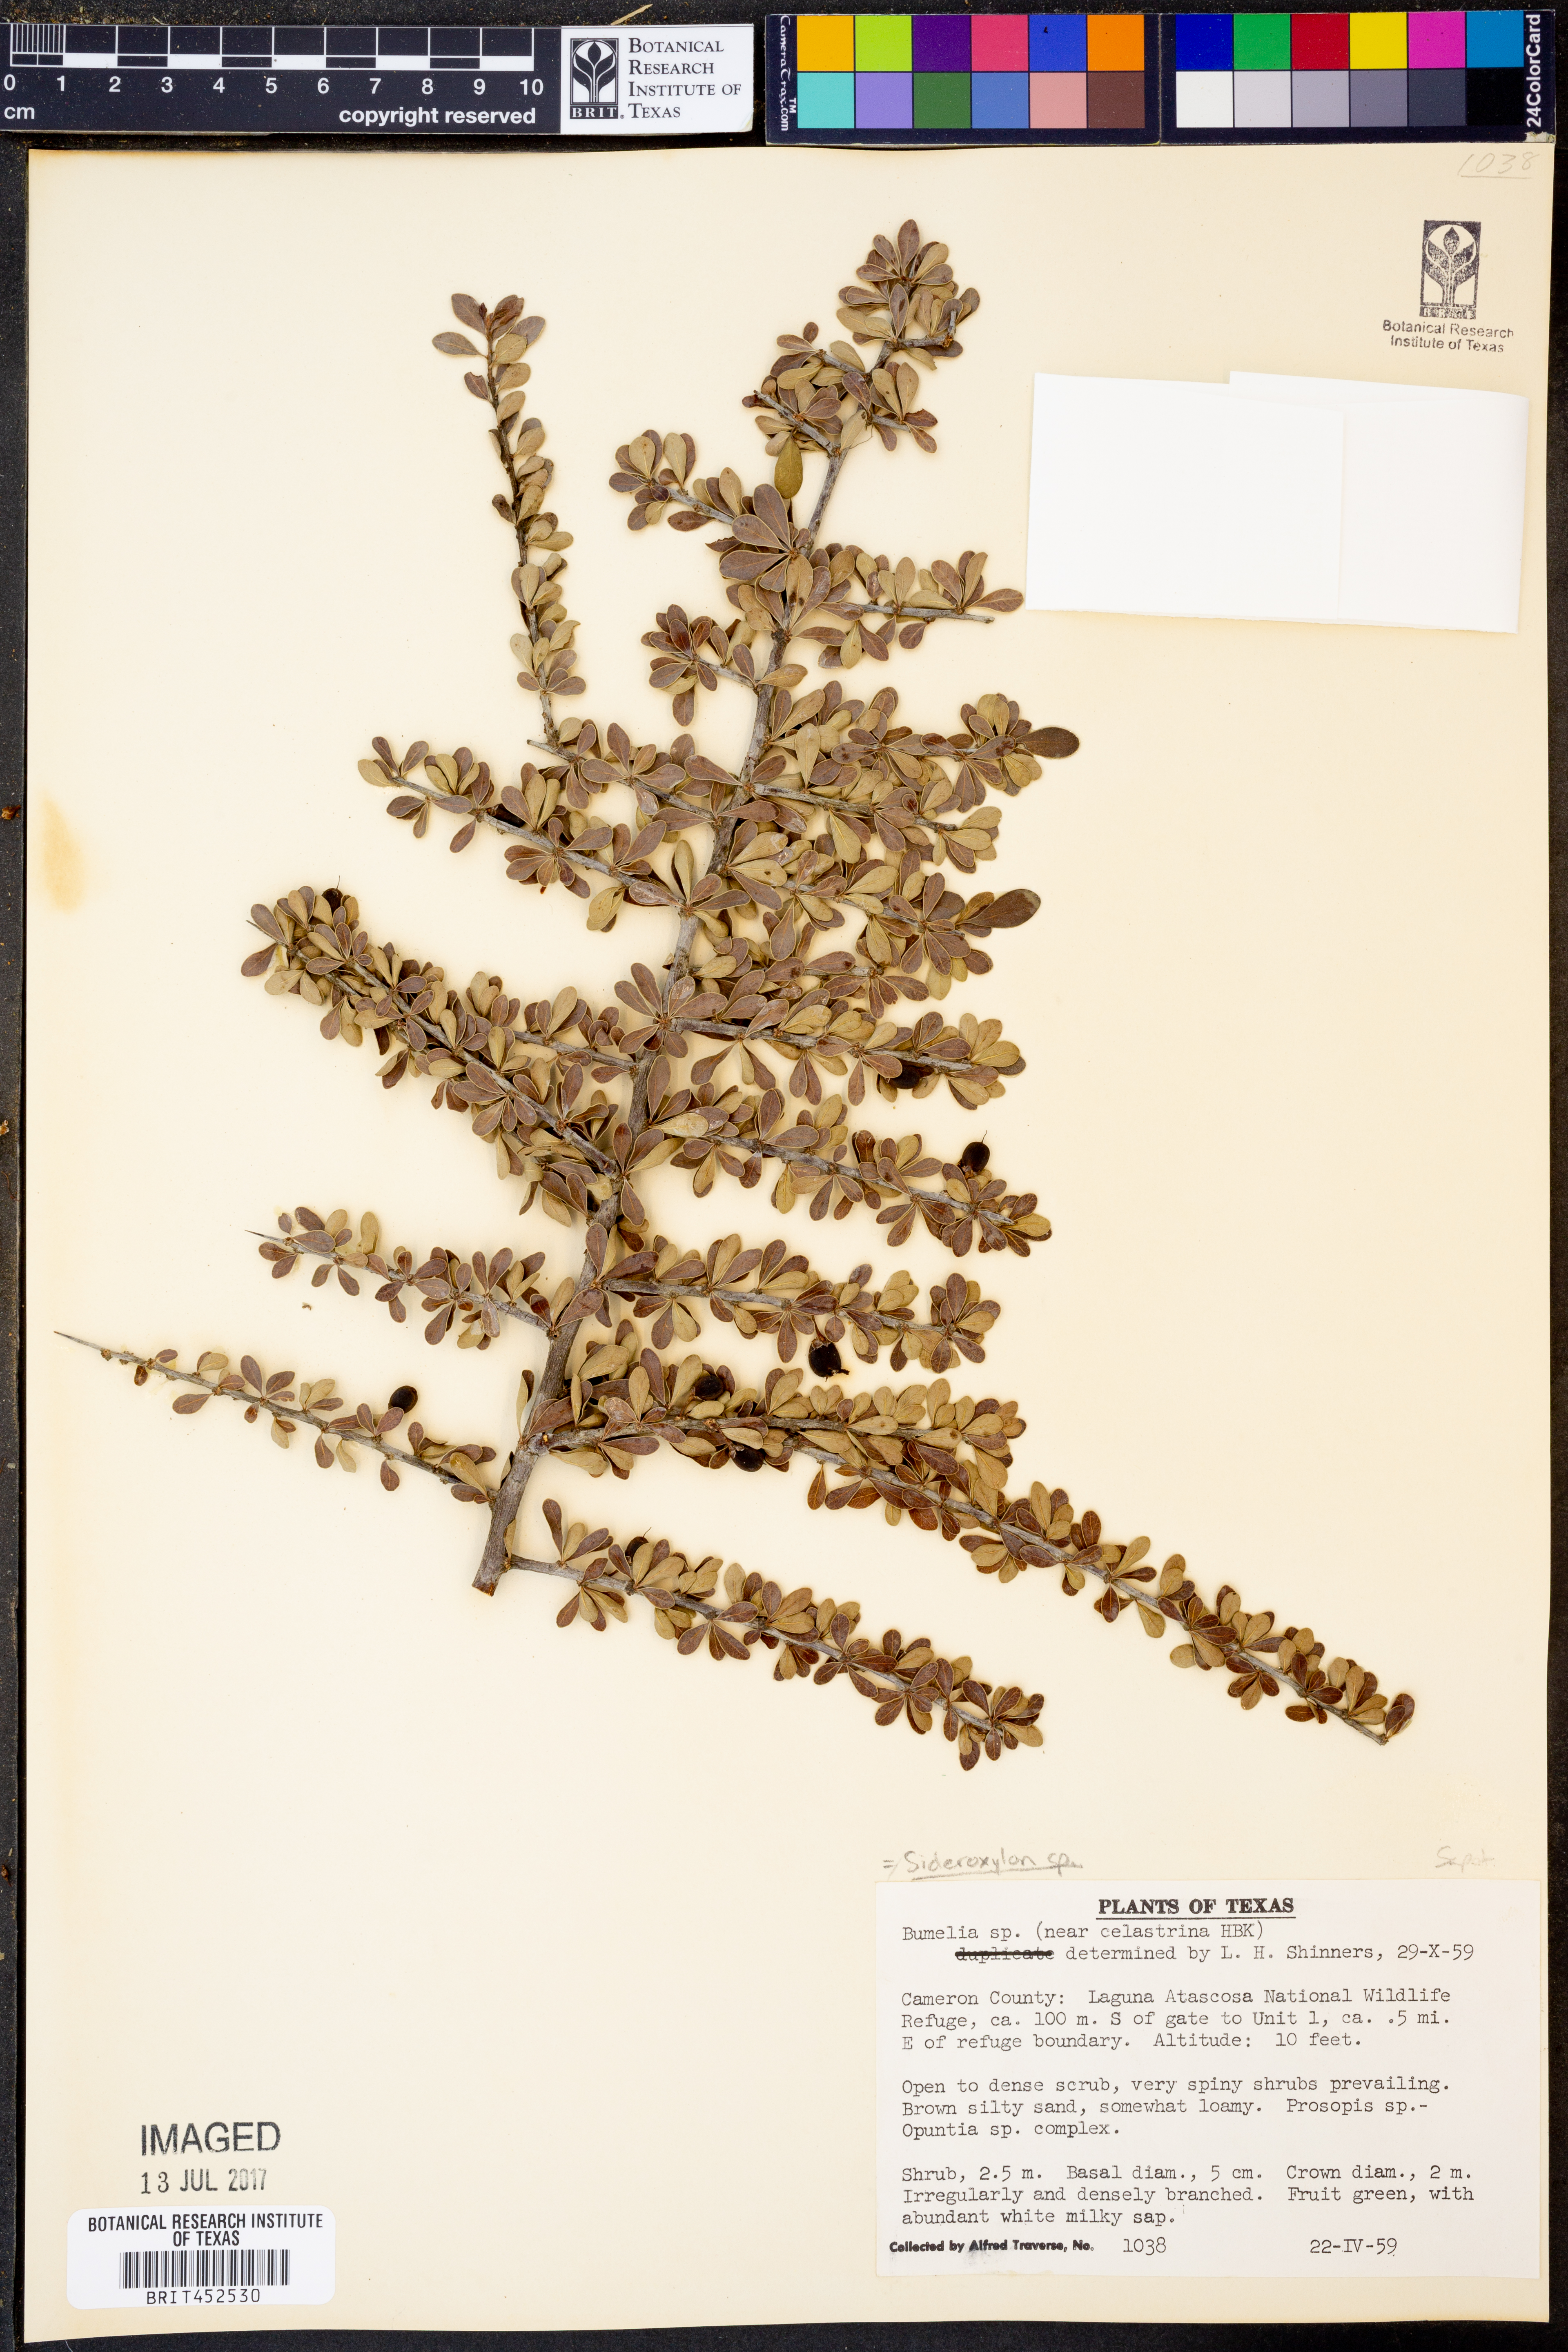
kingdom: Plantae
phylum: Tracheophyta
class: Magnoliopsida
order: Ericales
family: Sapotaceae
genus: Sideroxylon
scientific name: Sideroxylon
